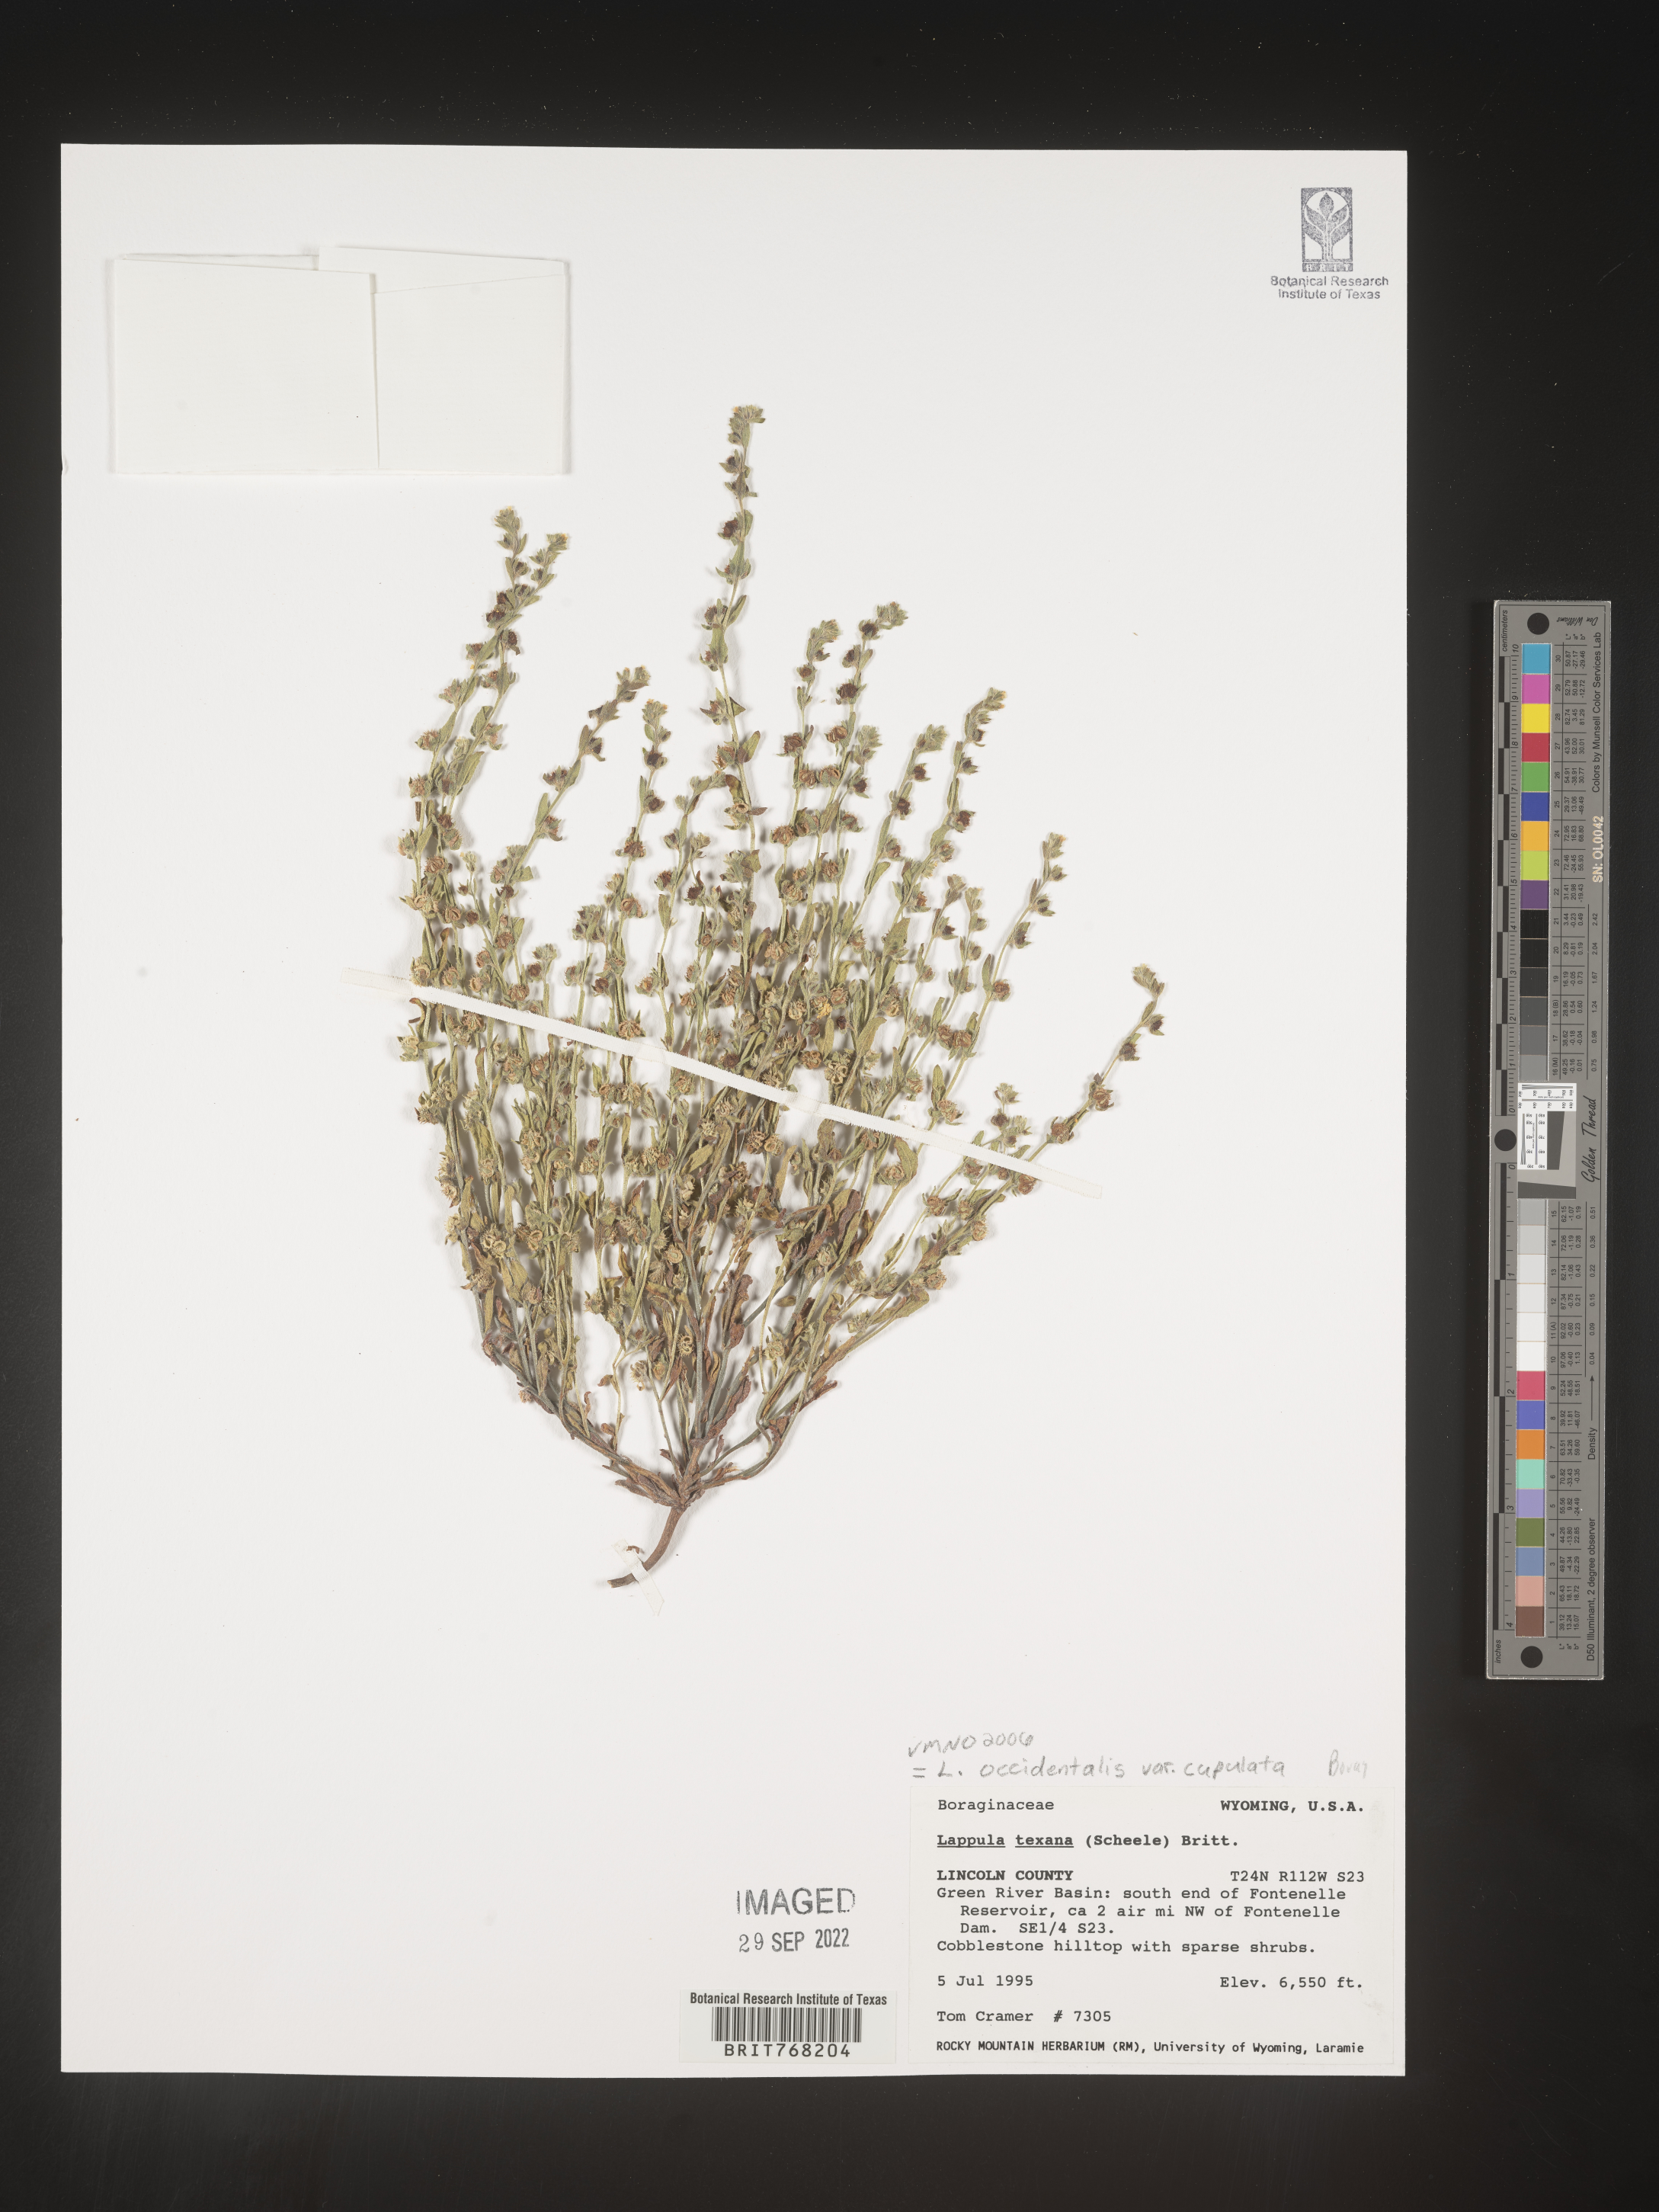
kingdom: Plantae
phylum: Tracheophyta
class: Magnoliopsida
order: Boraginales
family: Boraginaceae
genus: Lappula
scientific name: Lappula
